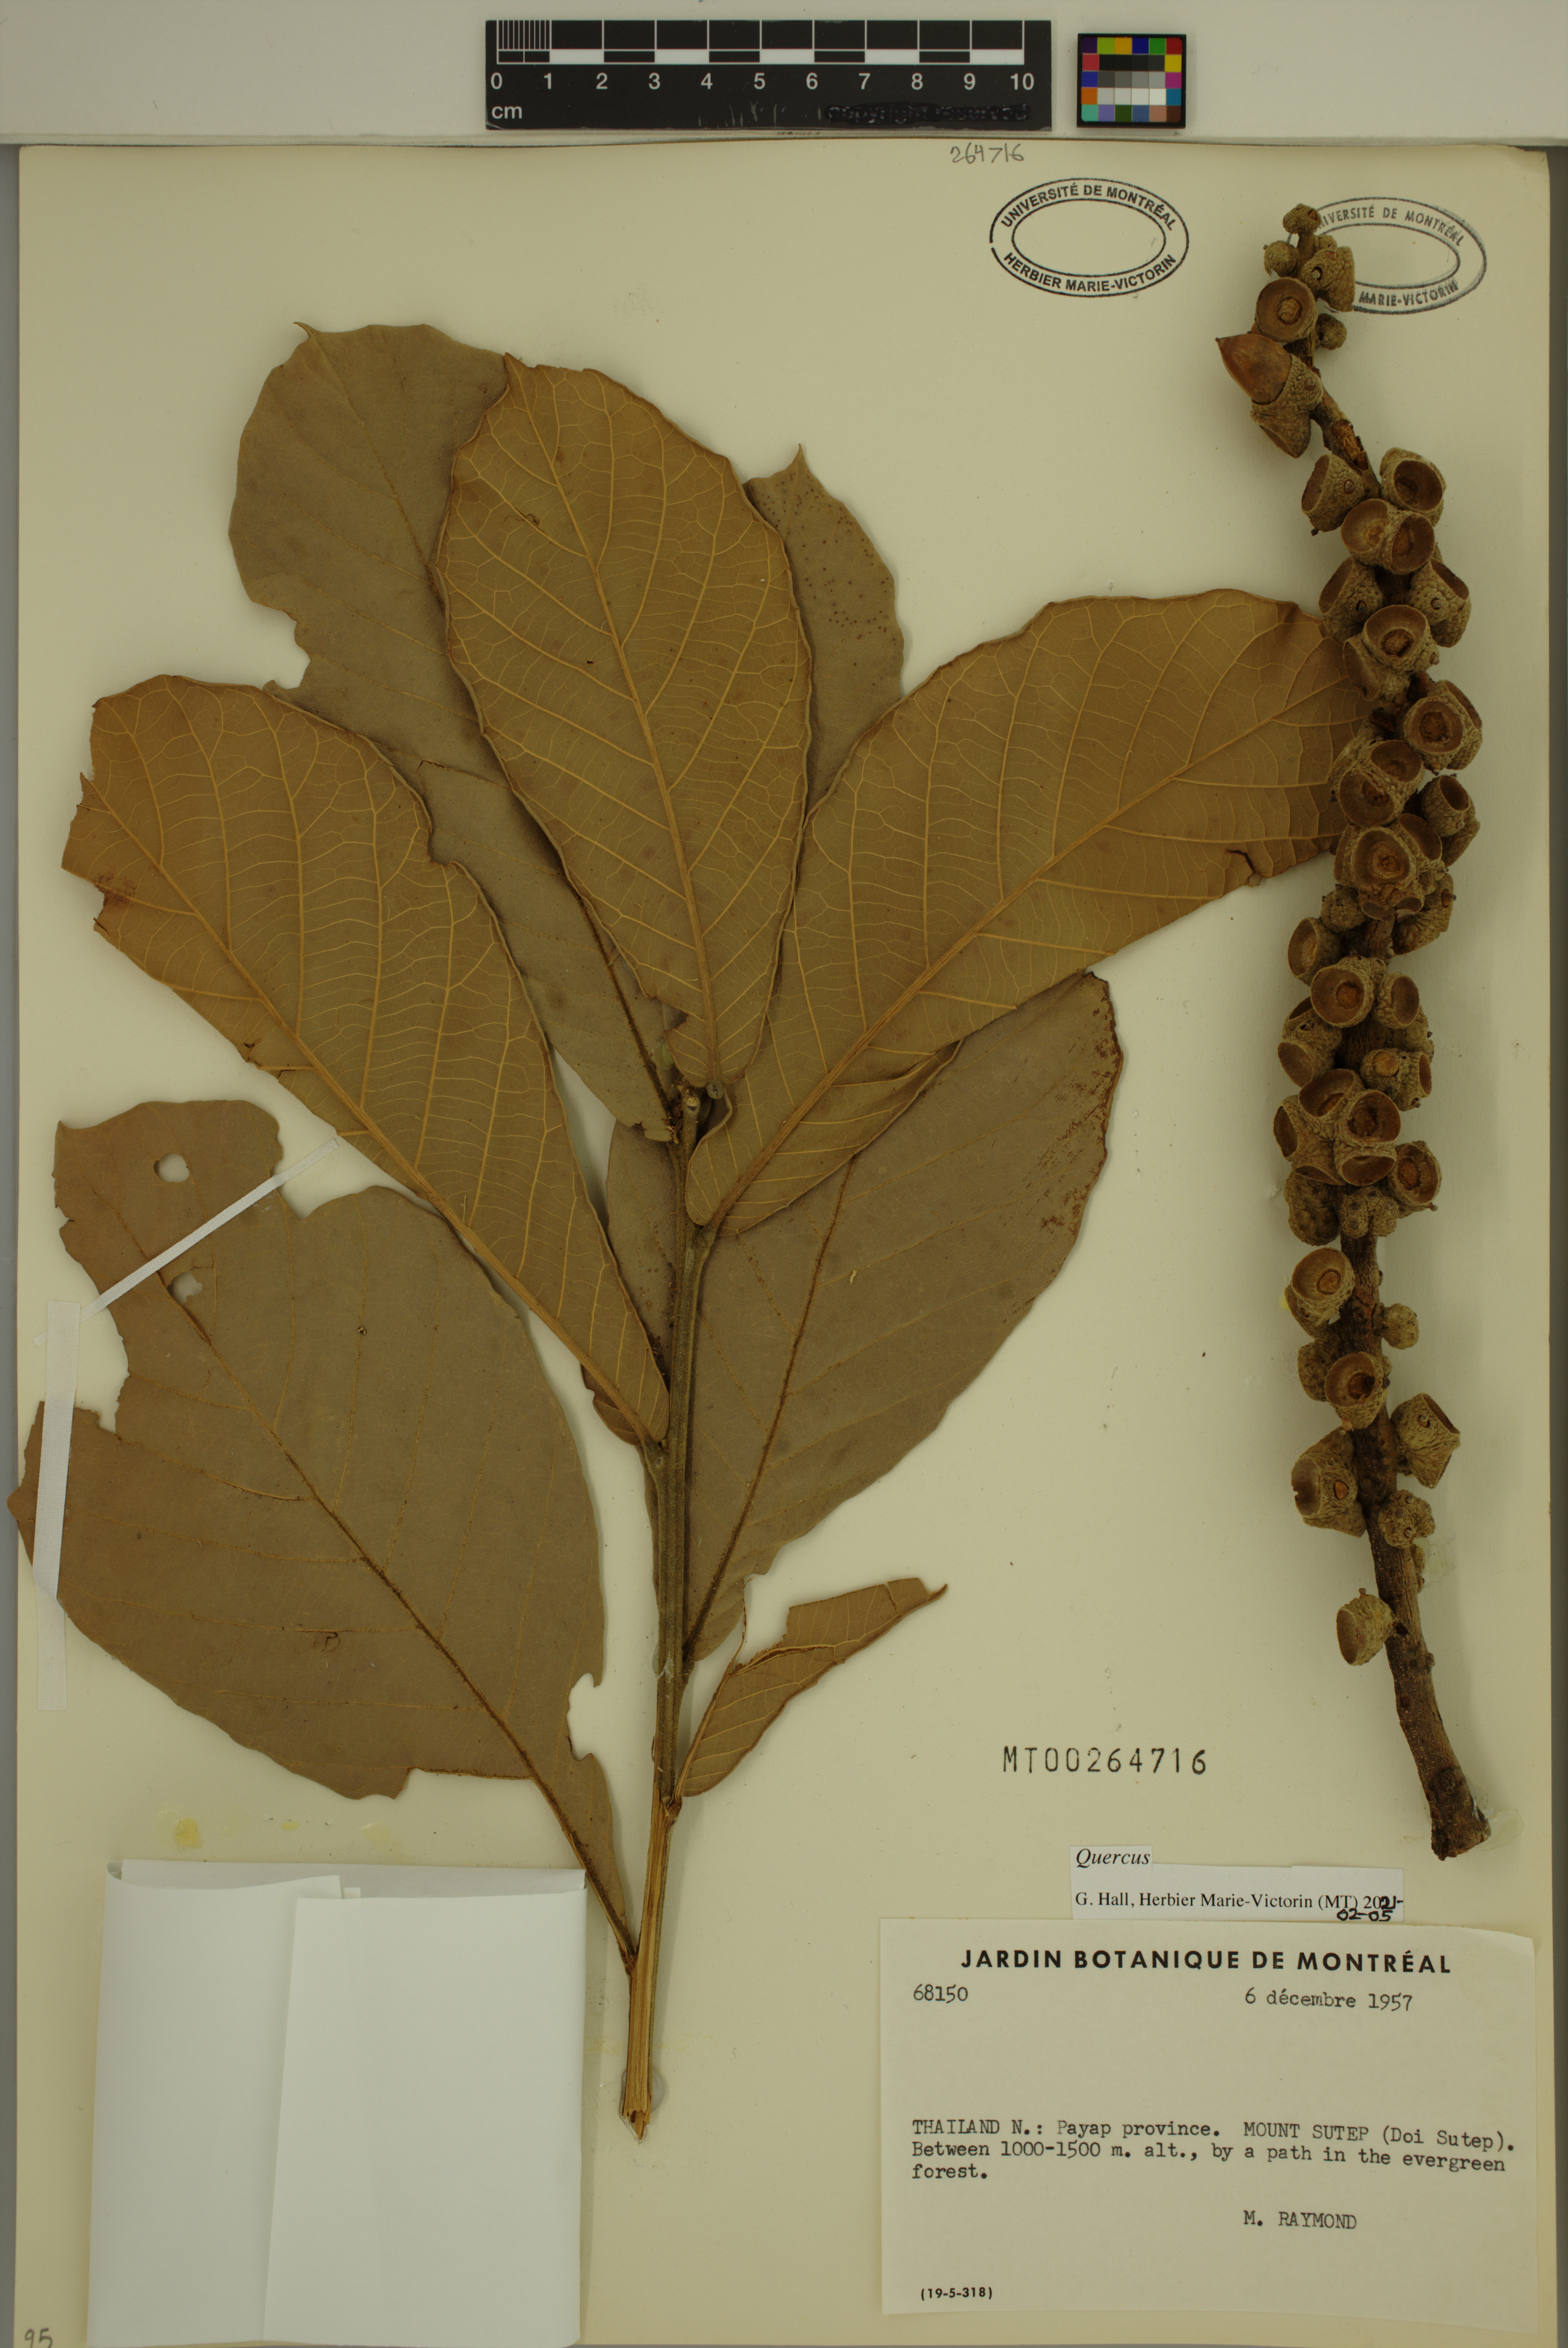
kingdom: Plantae
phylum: Tracheophyta
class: Magnoliopsida
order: Fagales
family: Fagaceae
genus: Quercus
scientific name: Quercus
